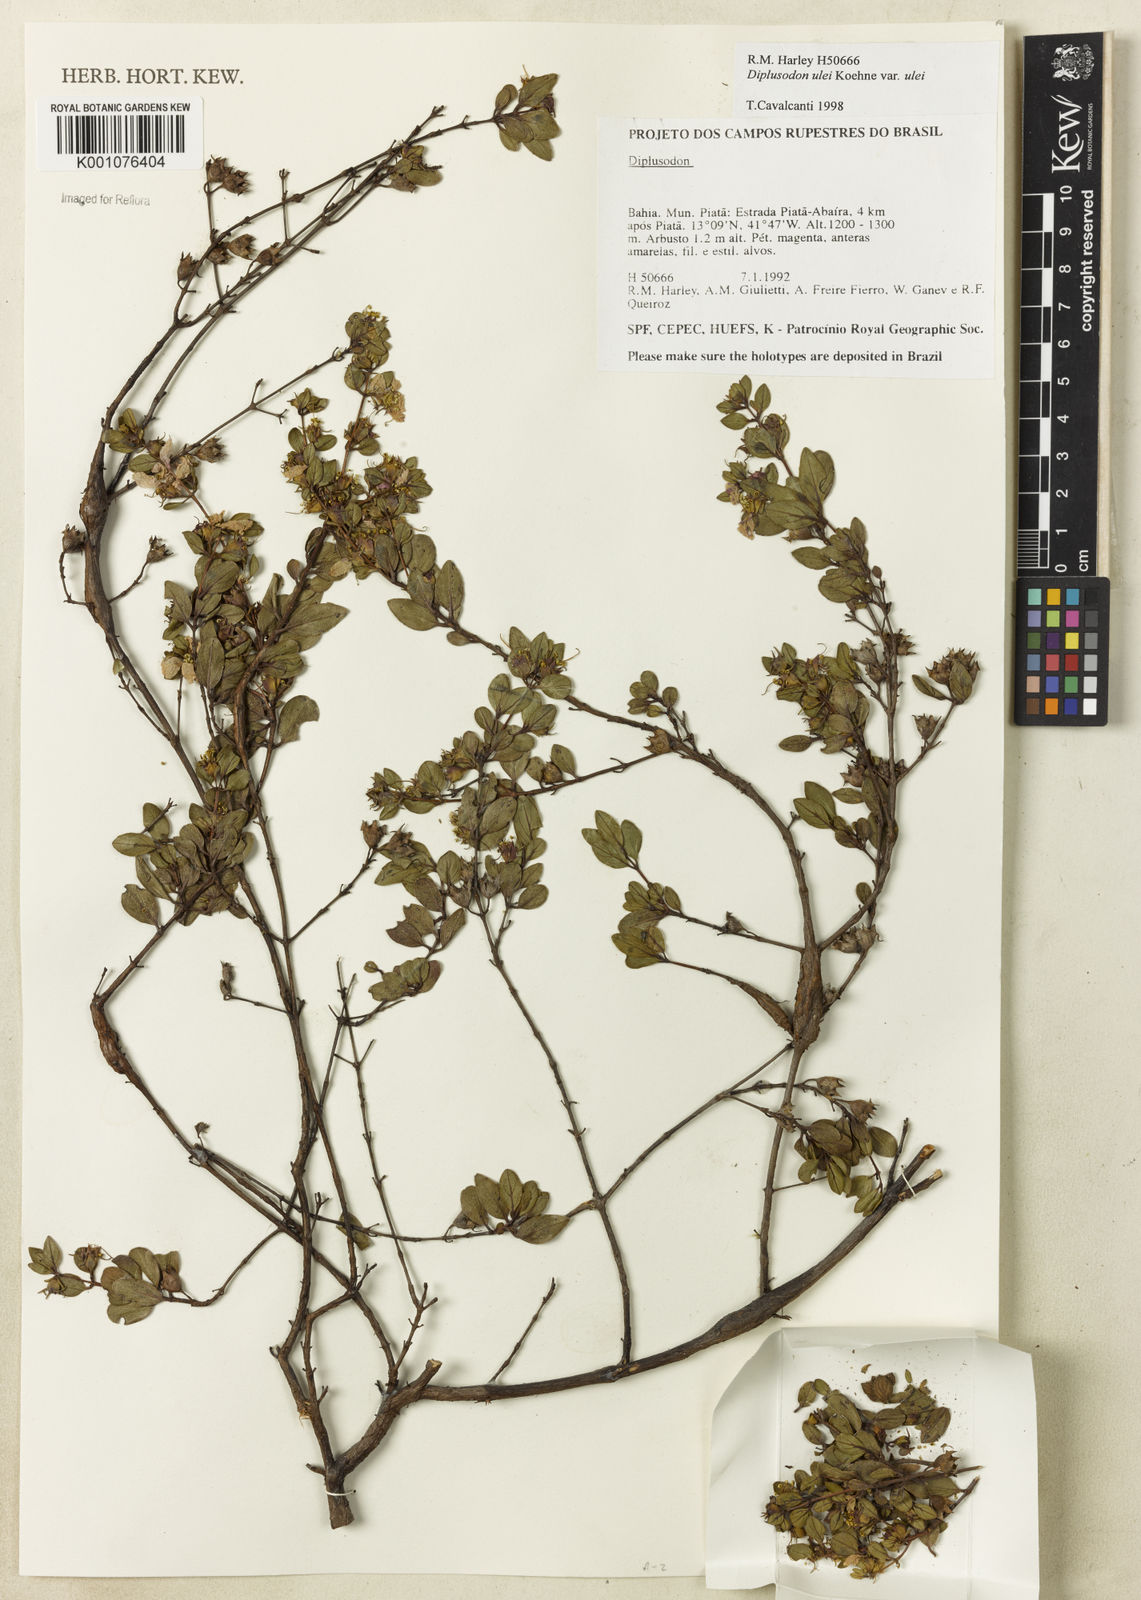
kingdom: Plantae
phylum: Tracheophyta
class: Magnoliopsida
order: Myrtales
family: Lythraceae
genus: Diplusodon
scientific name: Diplusodon ulei
